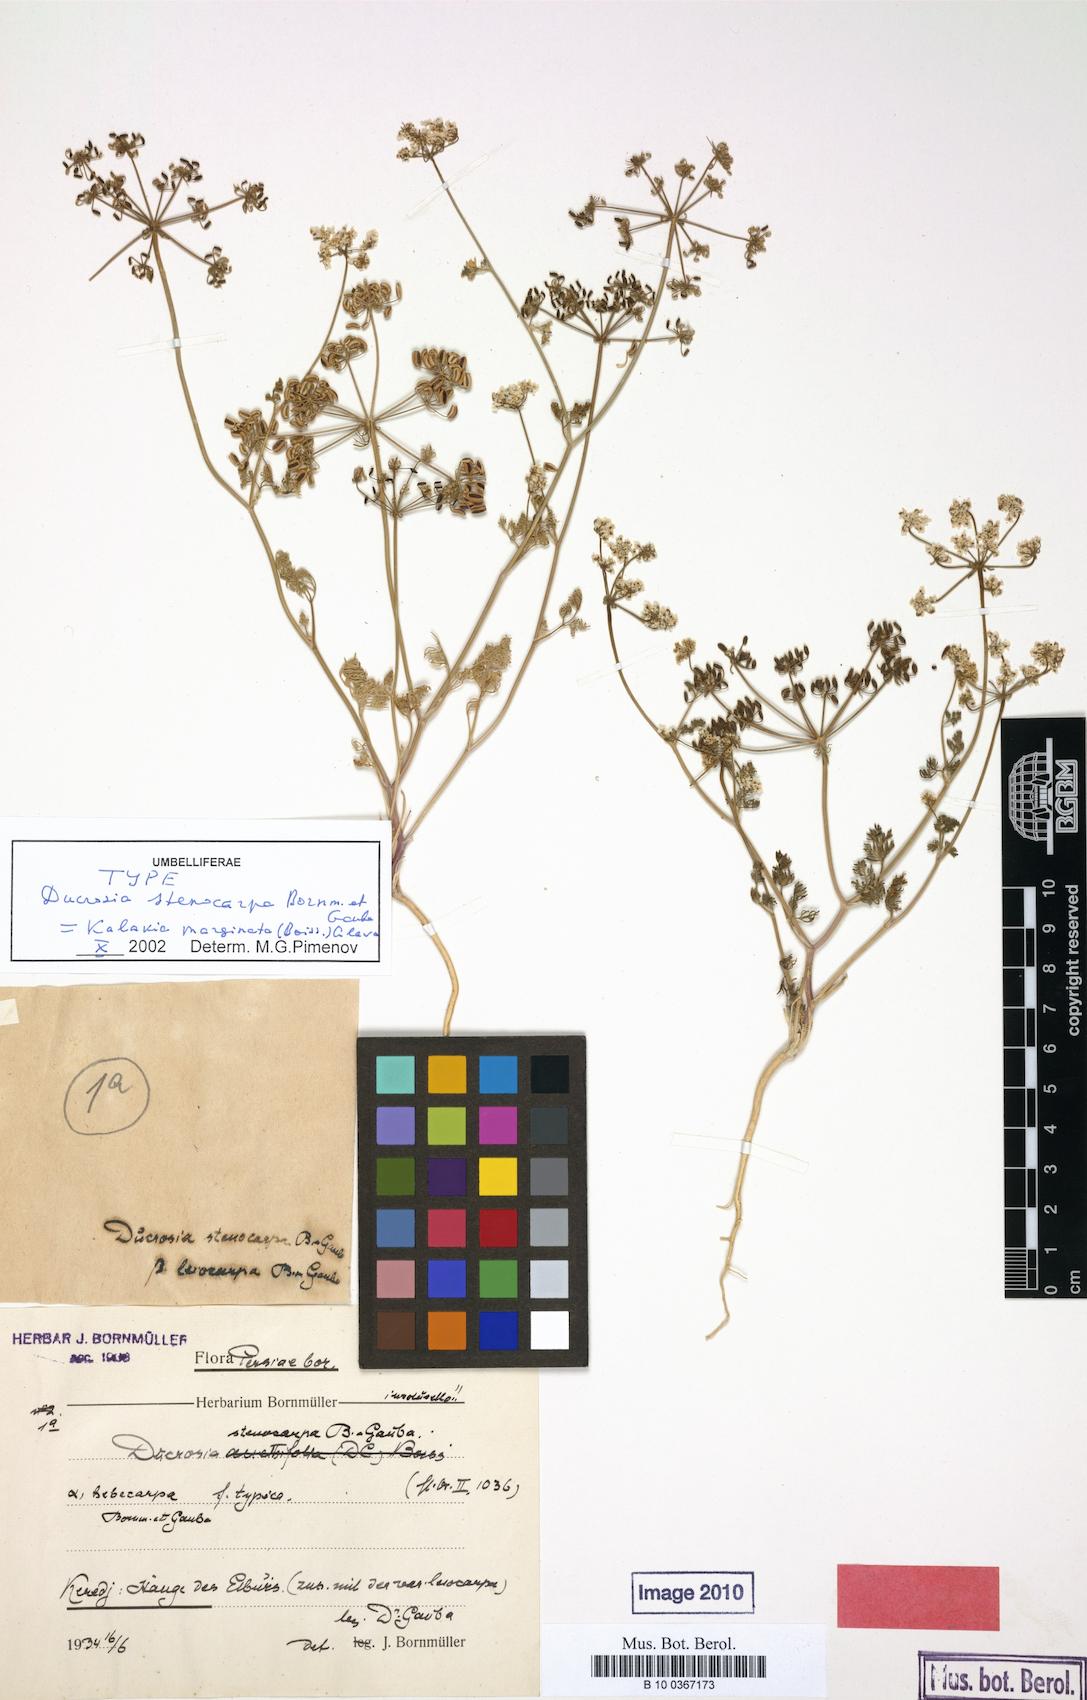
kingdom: Plantae
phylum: Tracheophyta
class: Magnoliopsida
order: Apiales
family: Apiaceae
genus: Kalakia
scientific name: Kalakia marginata
